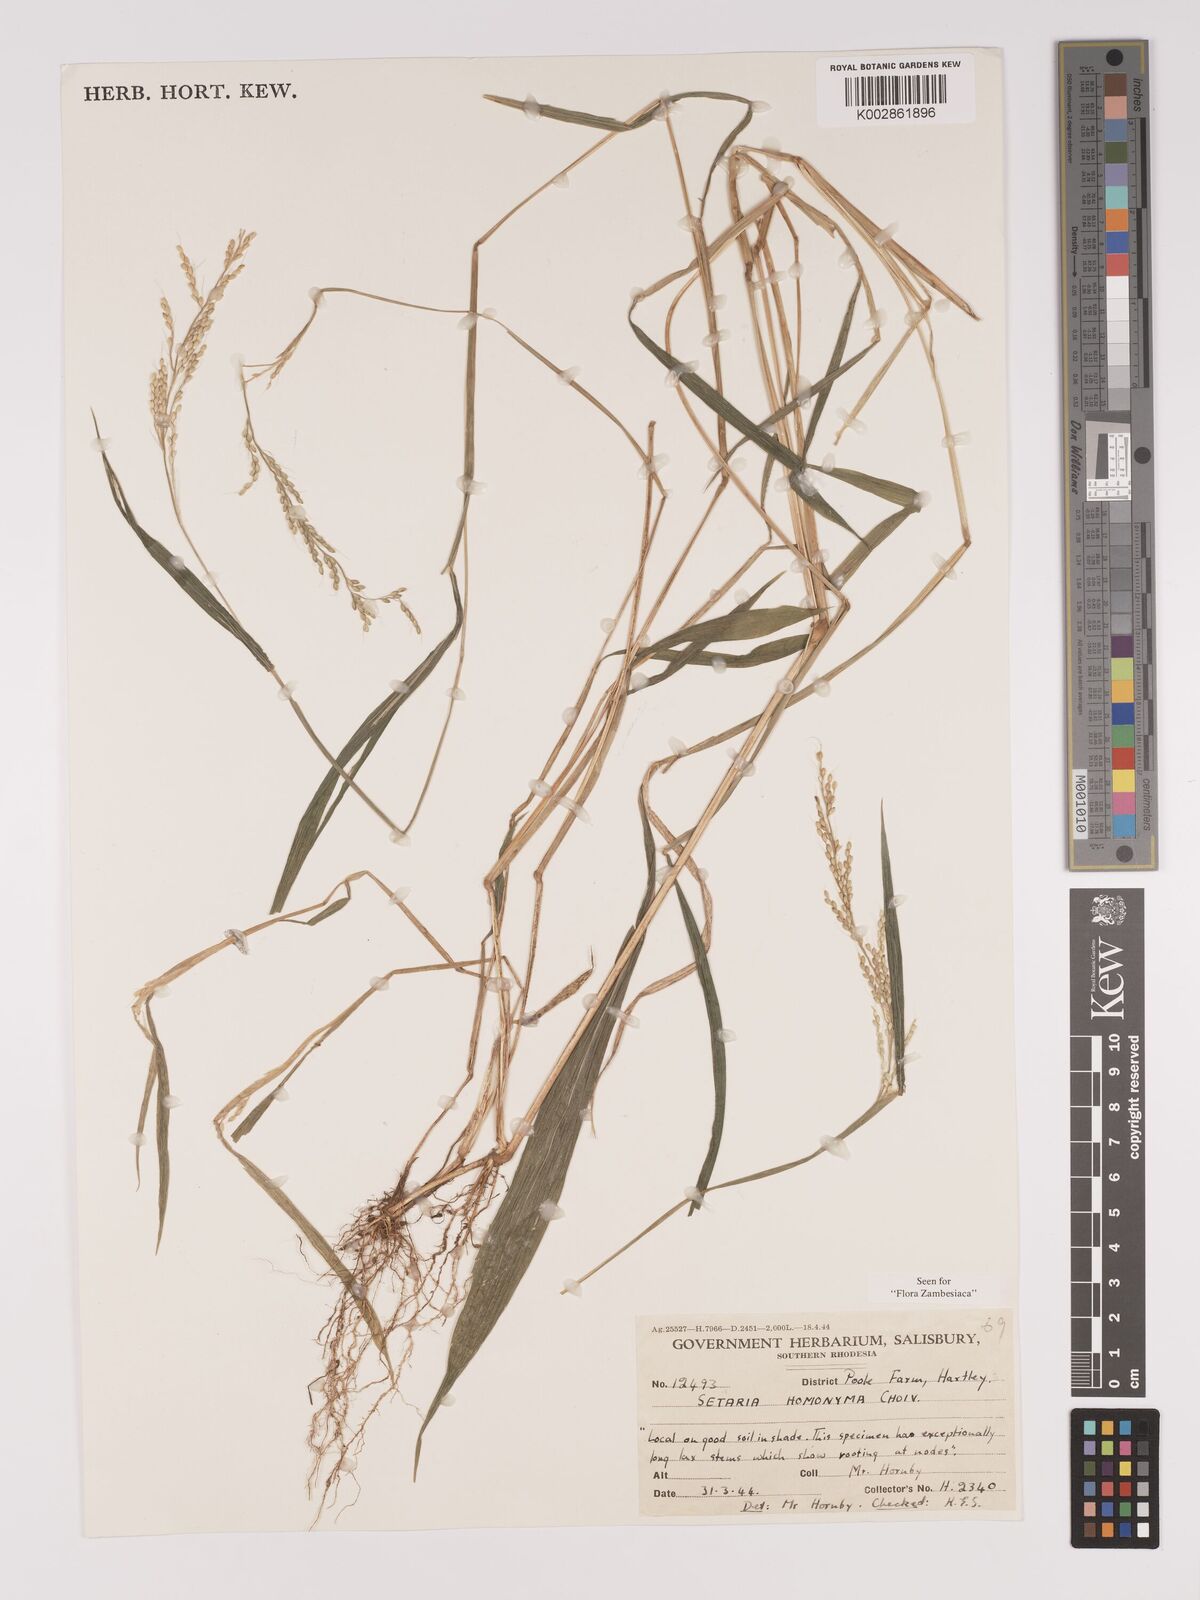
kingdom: Plantae
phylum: Tracheophyta
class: Liliopsida
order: Poales
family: Poaceae
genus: Setaria
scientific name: Setaria homonyma
